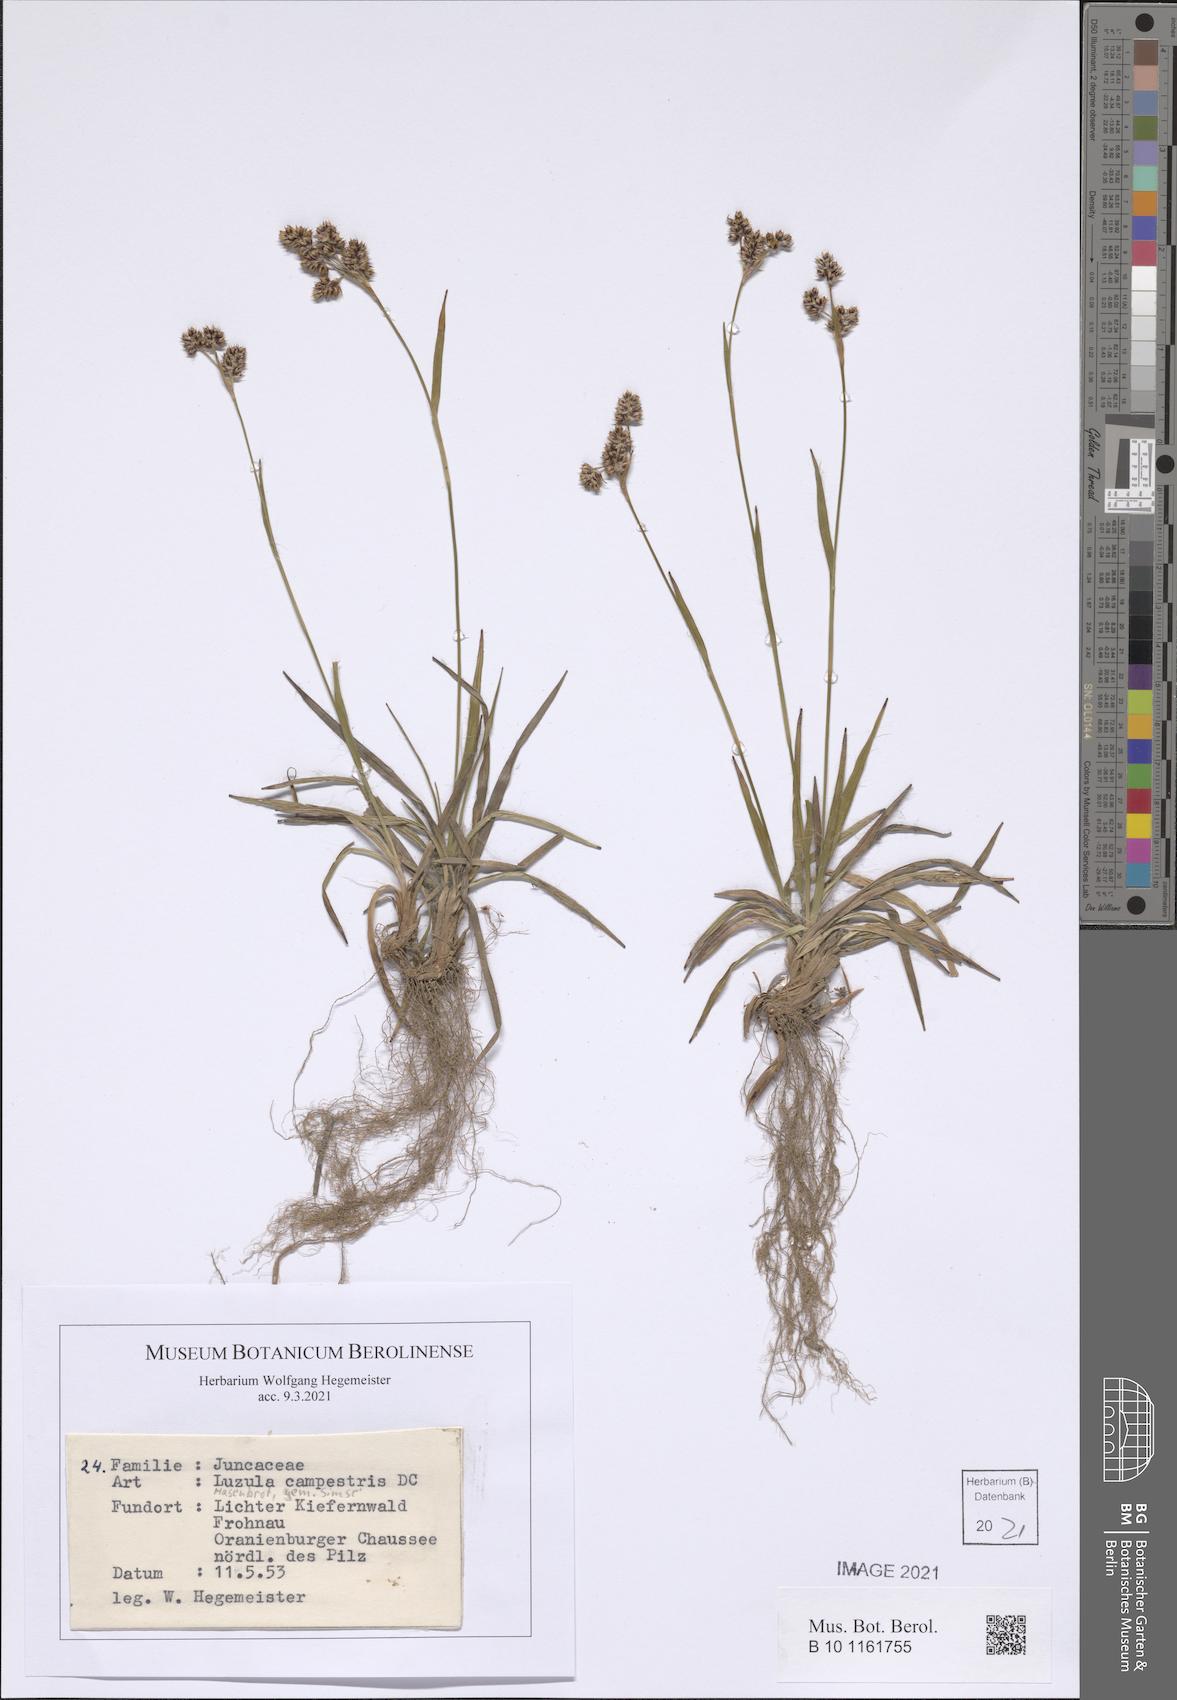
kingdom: Plantae
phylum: Tracheophyta
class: Liliopsida
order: Poales
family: Juncaceae
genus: Luzula
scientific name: Luzula campestris
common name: Field wood-rush
